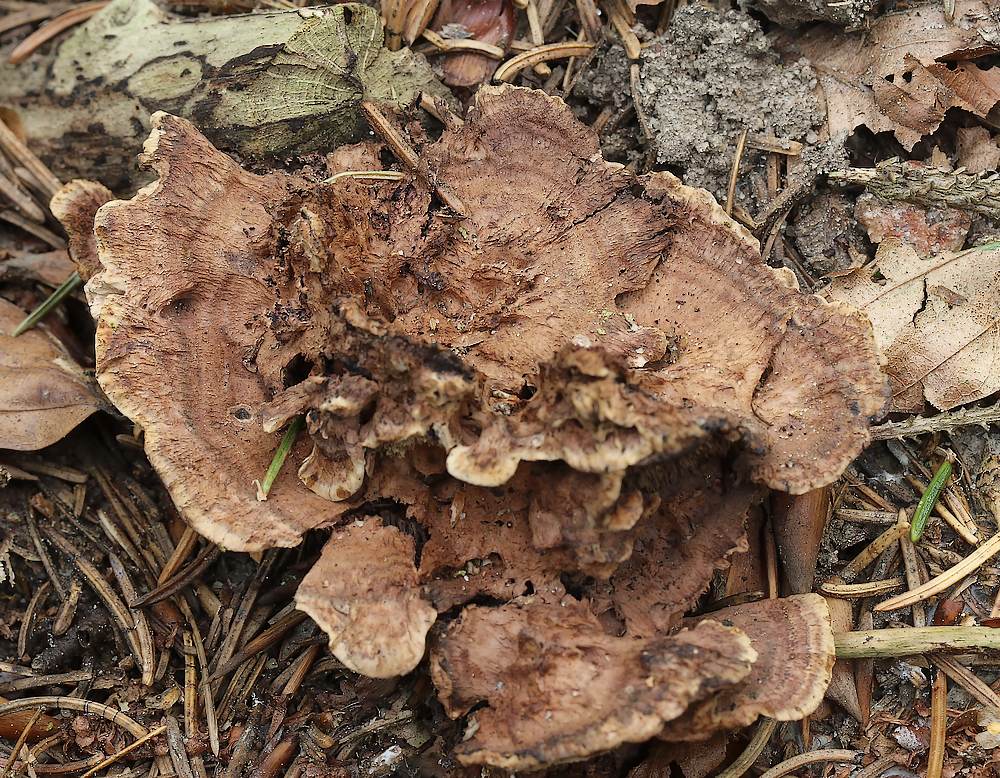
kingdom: Fungi
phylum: Basidiomycota
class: Agaricomycetes
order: Thelephorales
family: Bankeraceae
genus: Hydnellum
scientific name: Hydnellum concrescens
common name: bæltet korkpigsvamp
